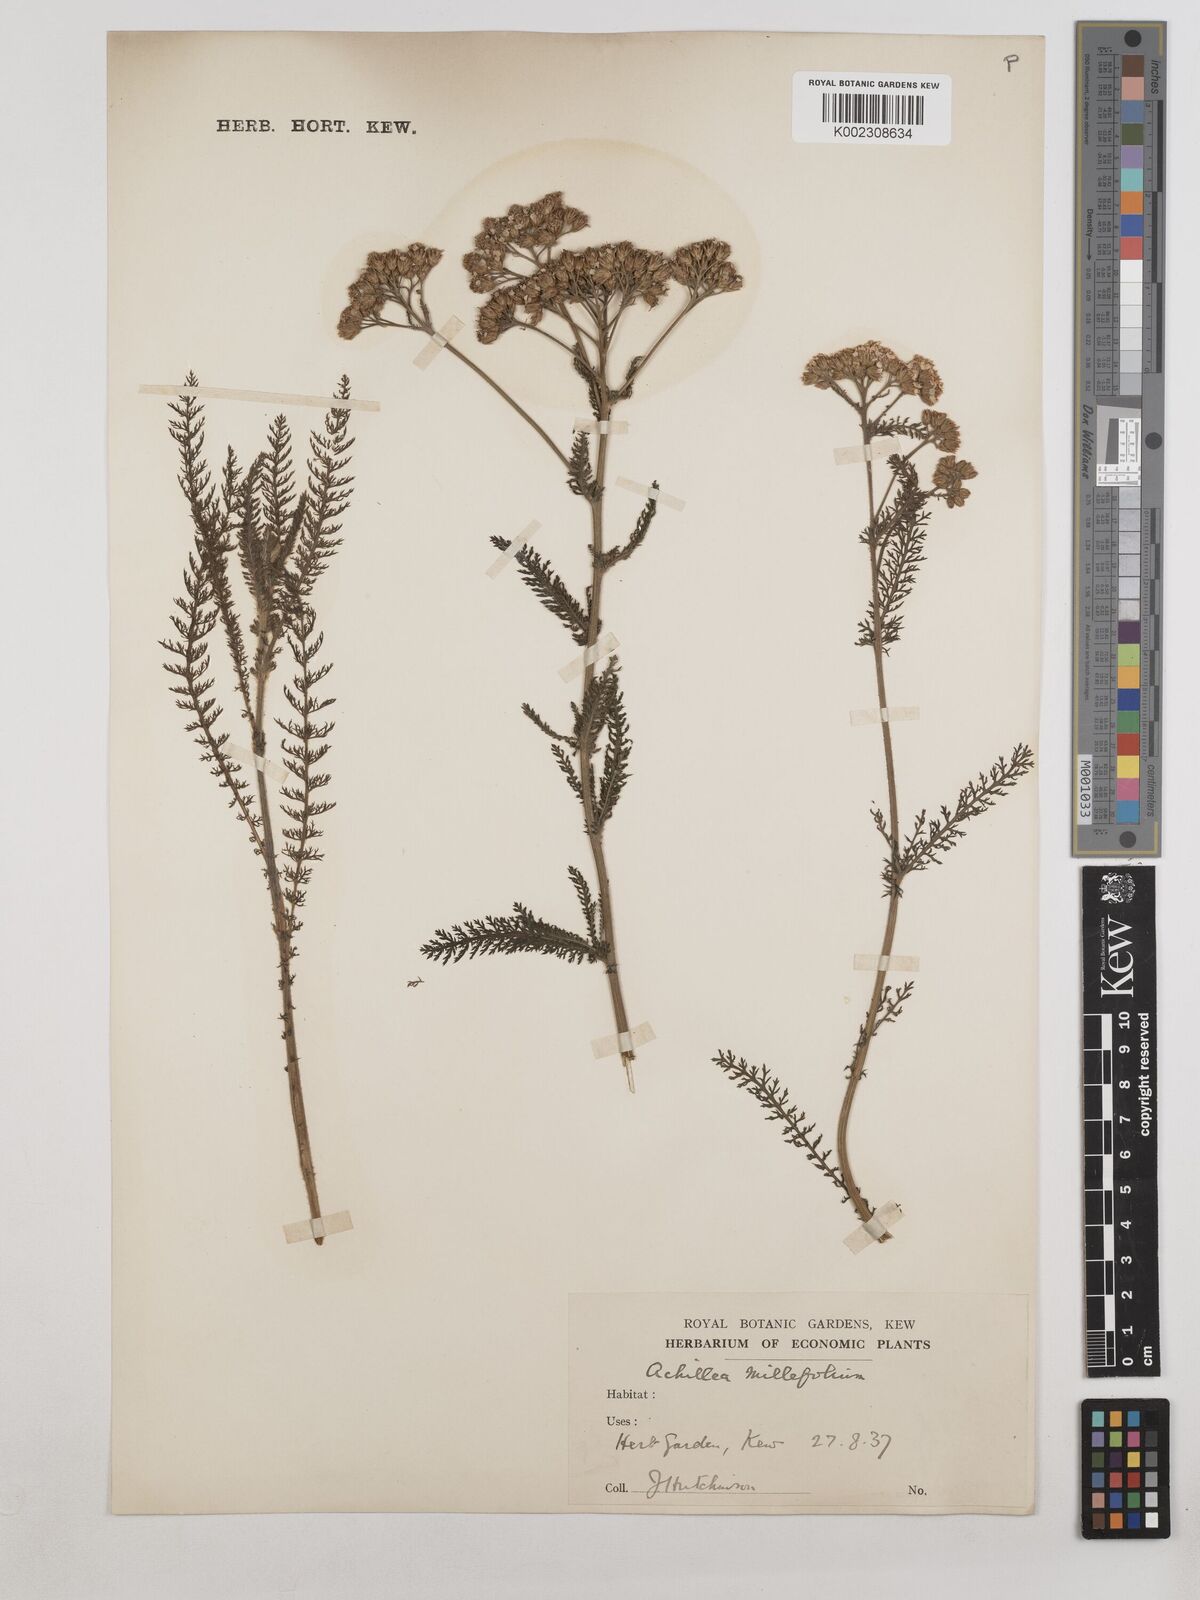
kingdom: Plantae
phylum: Tracheophyta
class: Magnoliopsida
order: Asterales
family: Asteraceae
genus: Achillea
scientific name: Achillea millefolium
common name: Yarrow
